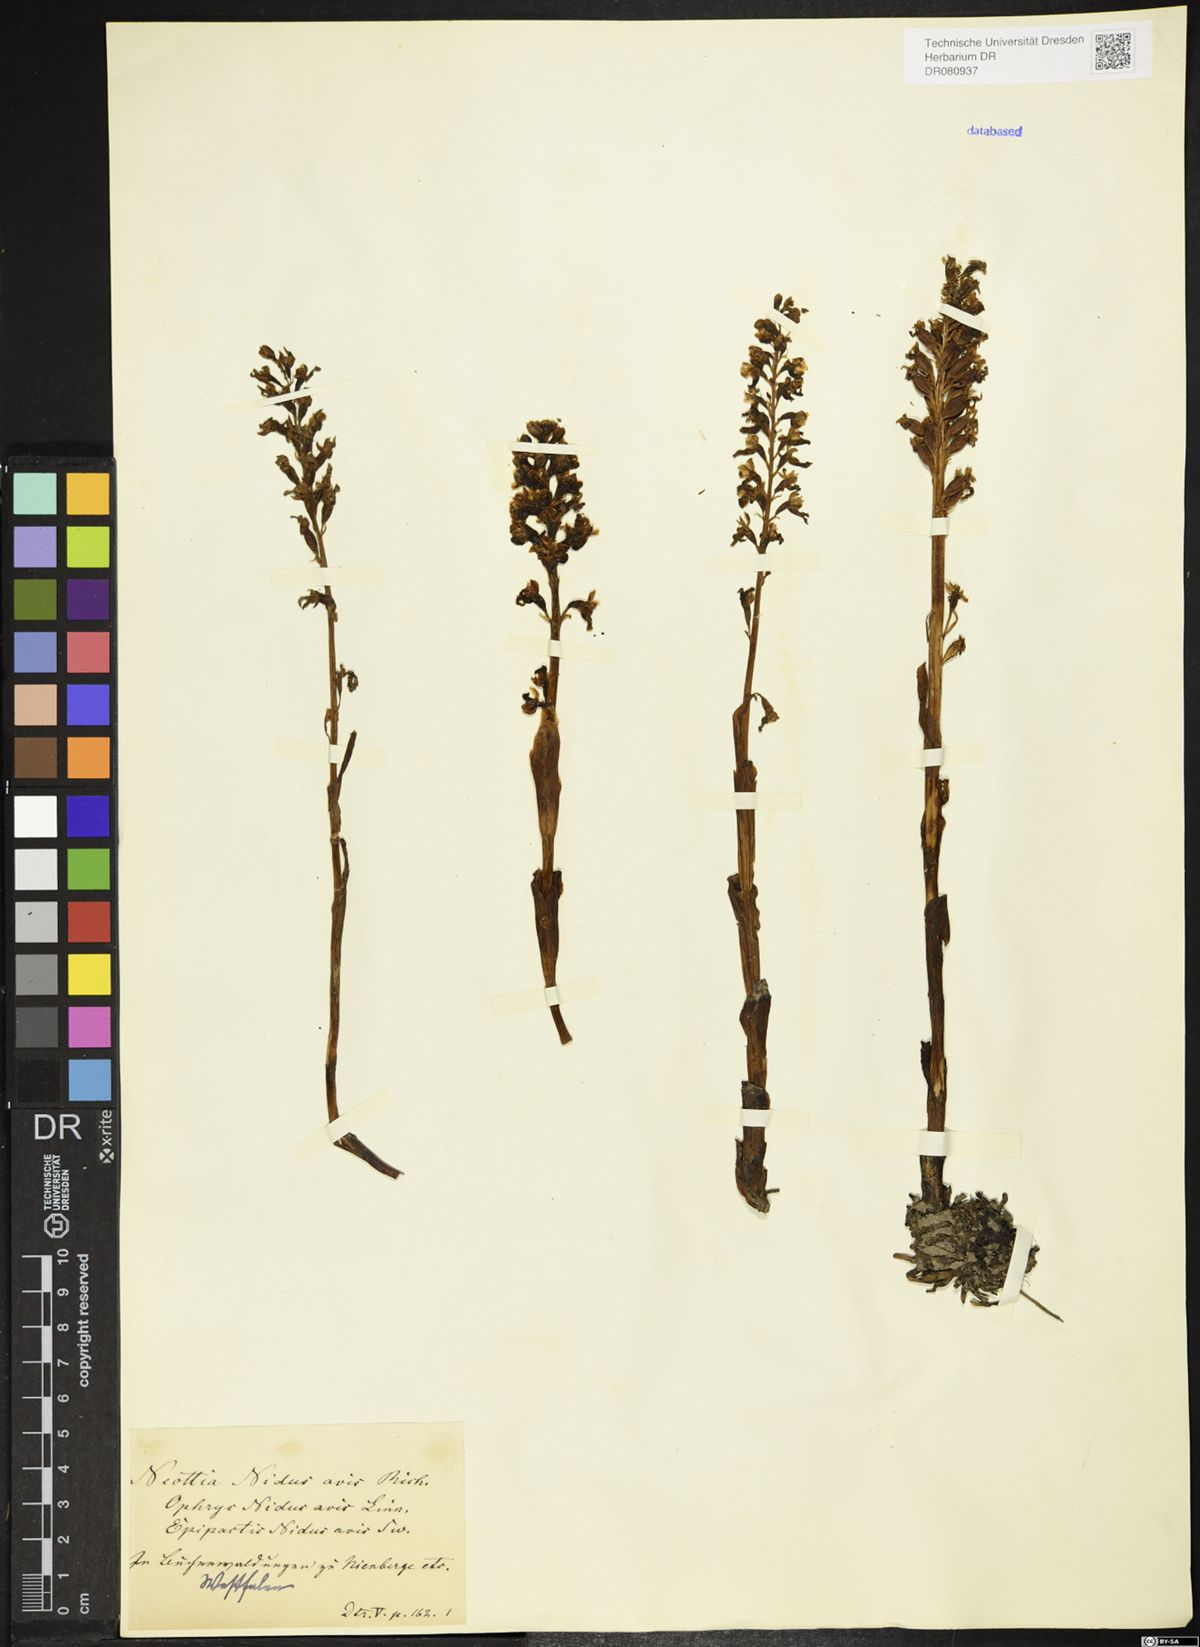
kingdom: Plantae
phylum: Tracheophyta
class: Liliopsida
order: Asparagales
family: Orchidaceae
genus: Neottia
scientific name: Neottia nidus-avis
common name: Bird's-nest orchid
